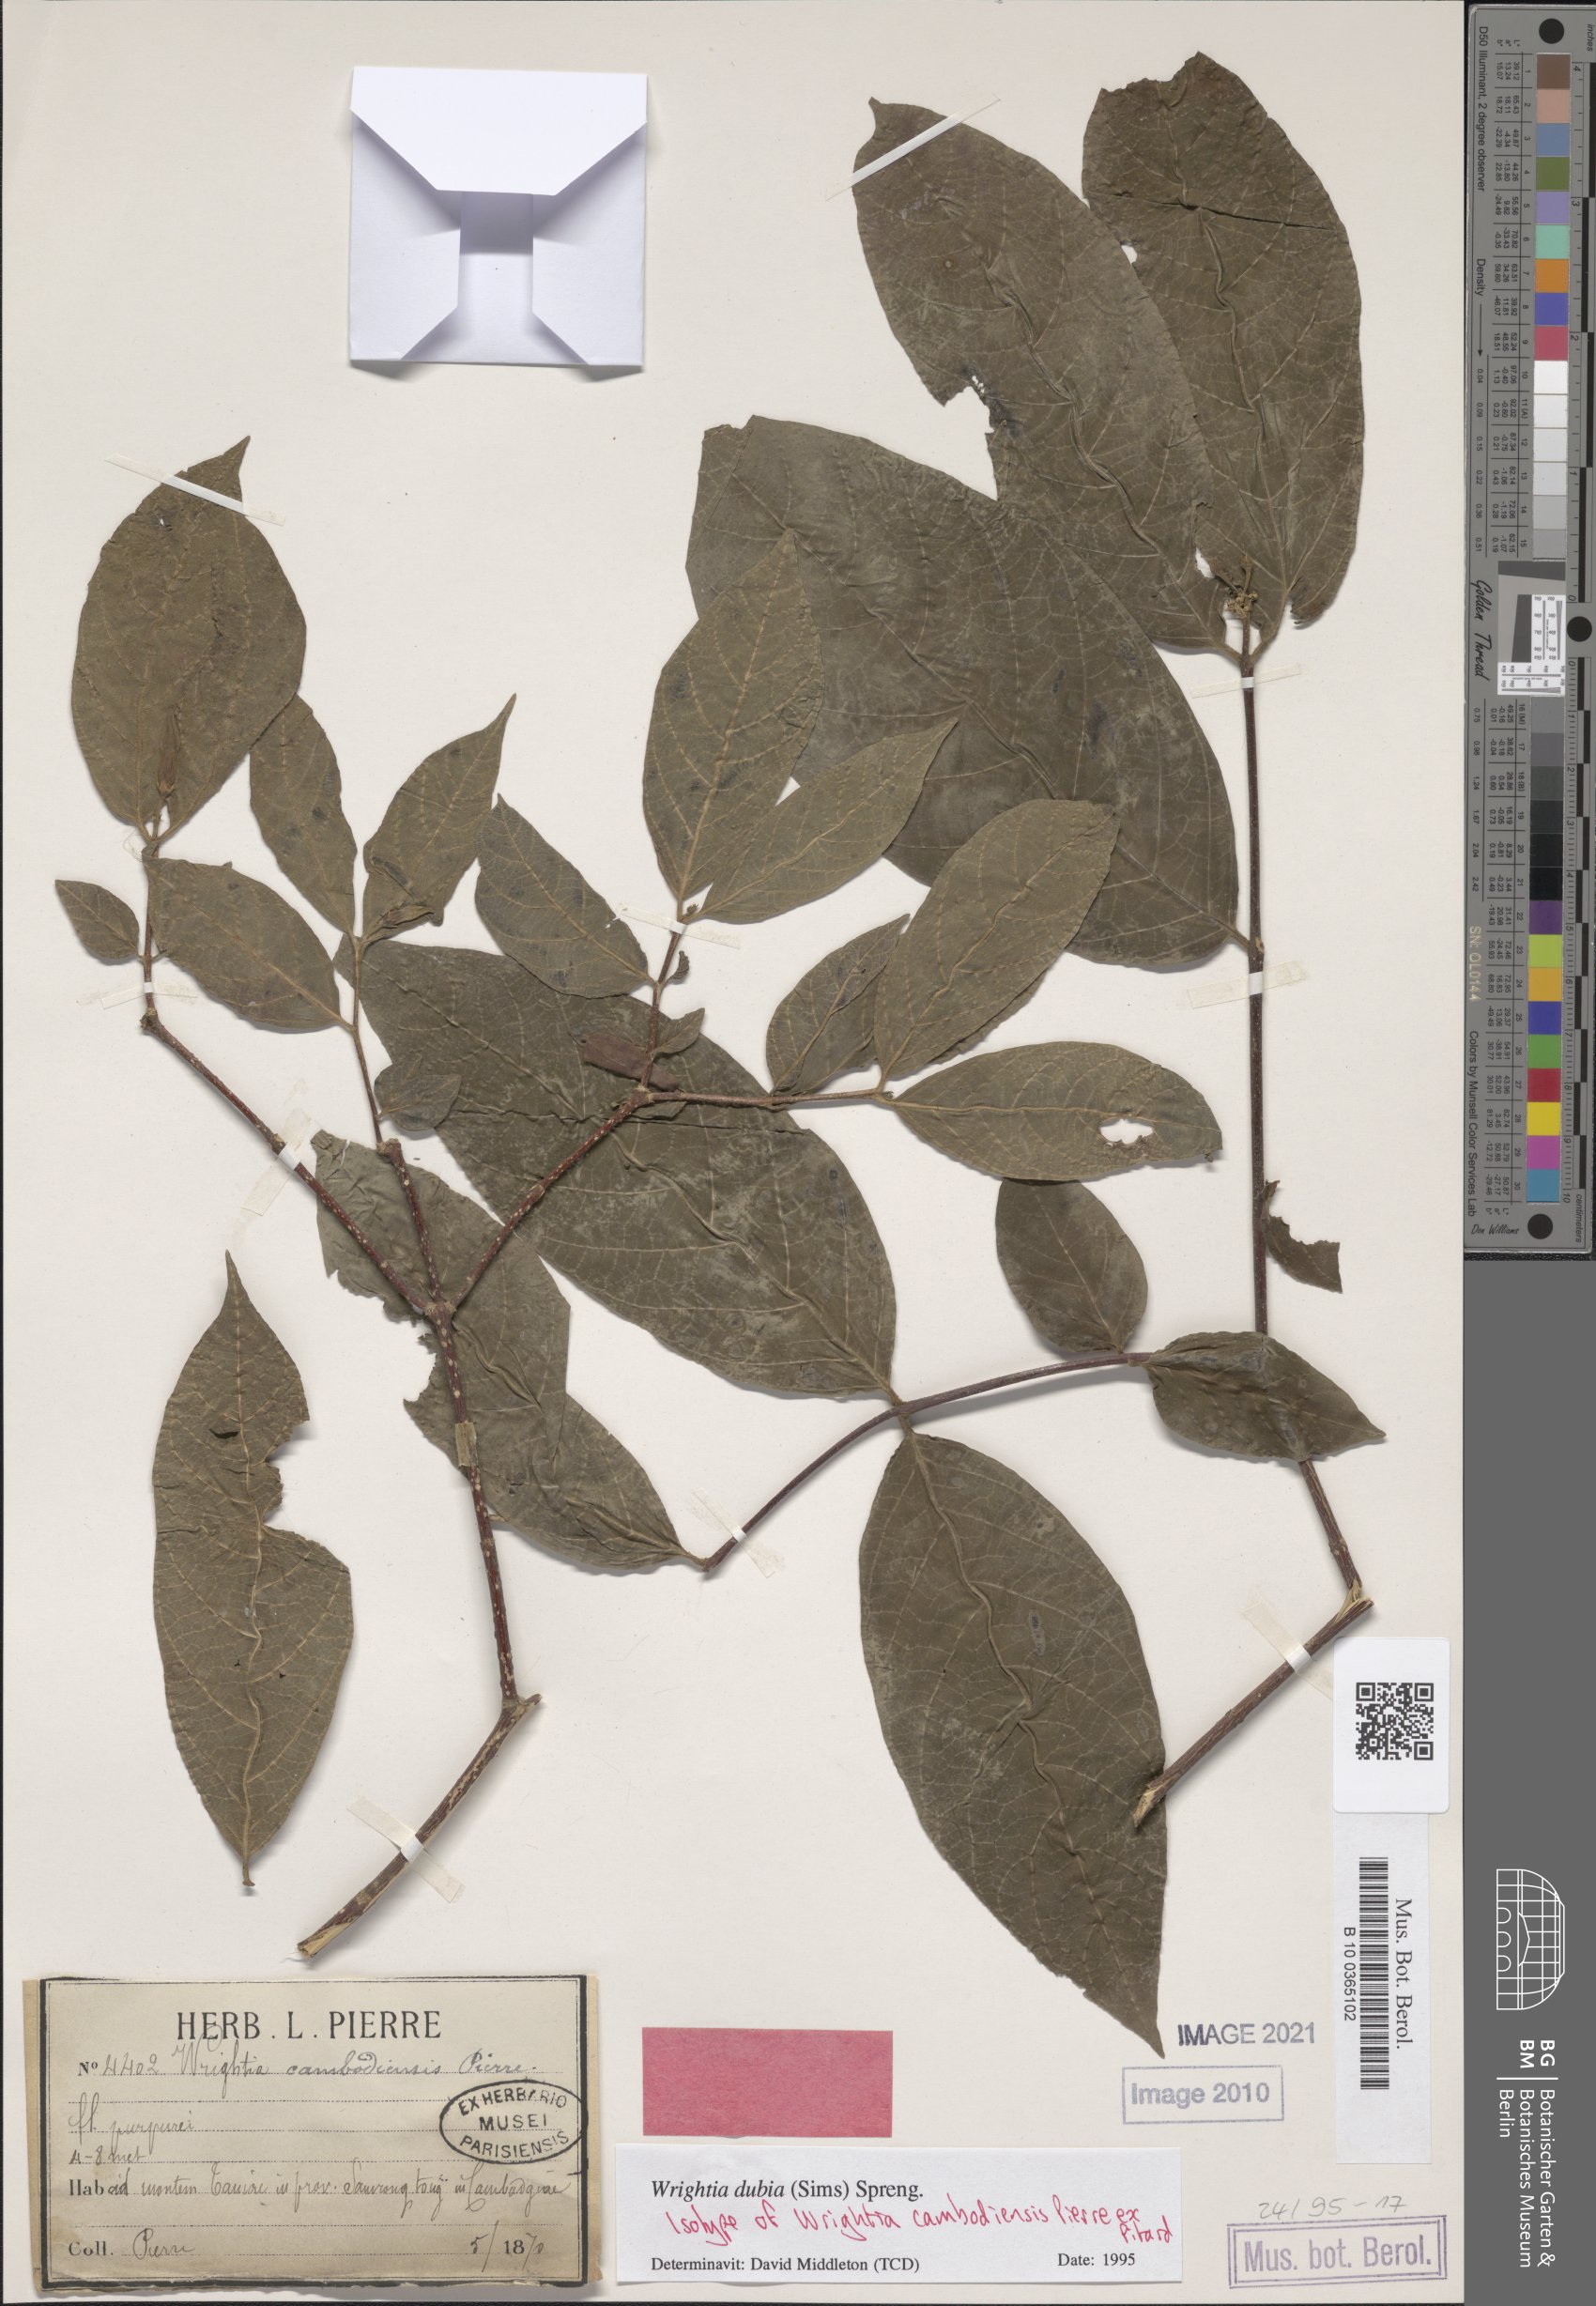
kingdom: Plantae
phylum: Tracheophyta
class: Magnoliopsida
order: Gentianales
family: Apocynaceae
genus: Wrightia
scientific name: Wrightia dubia
